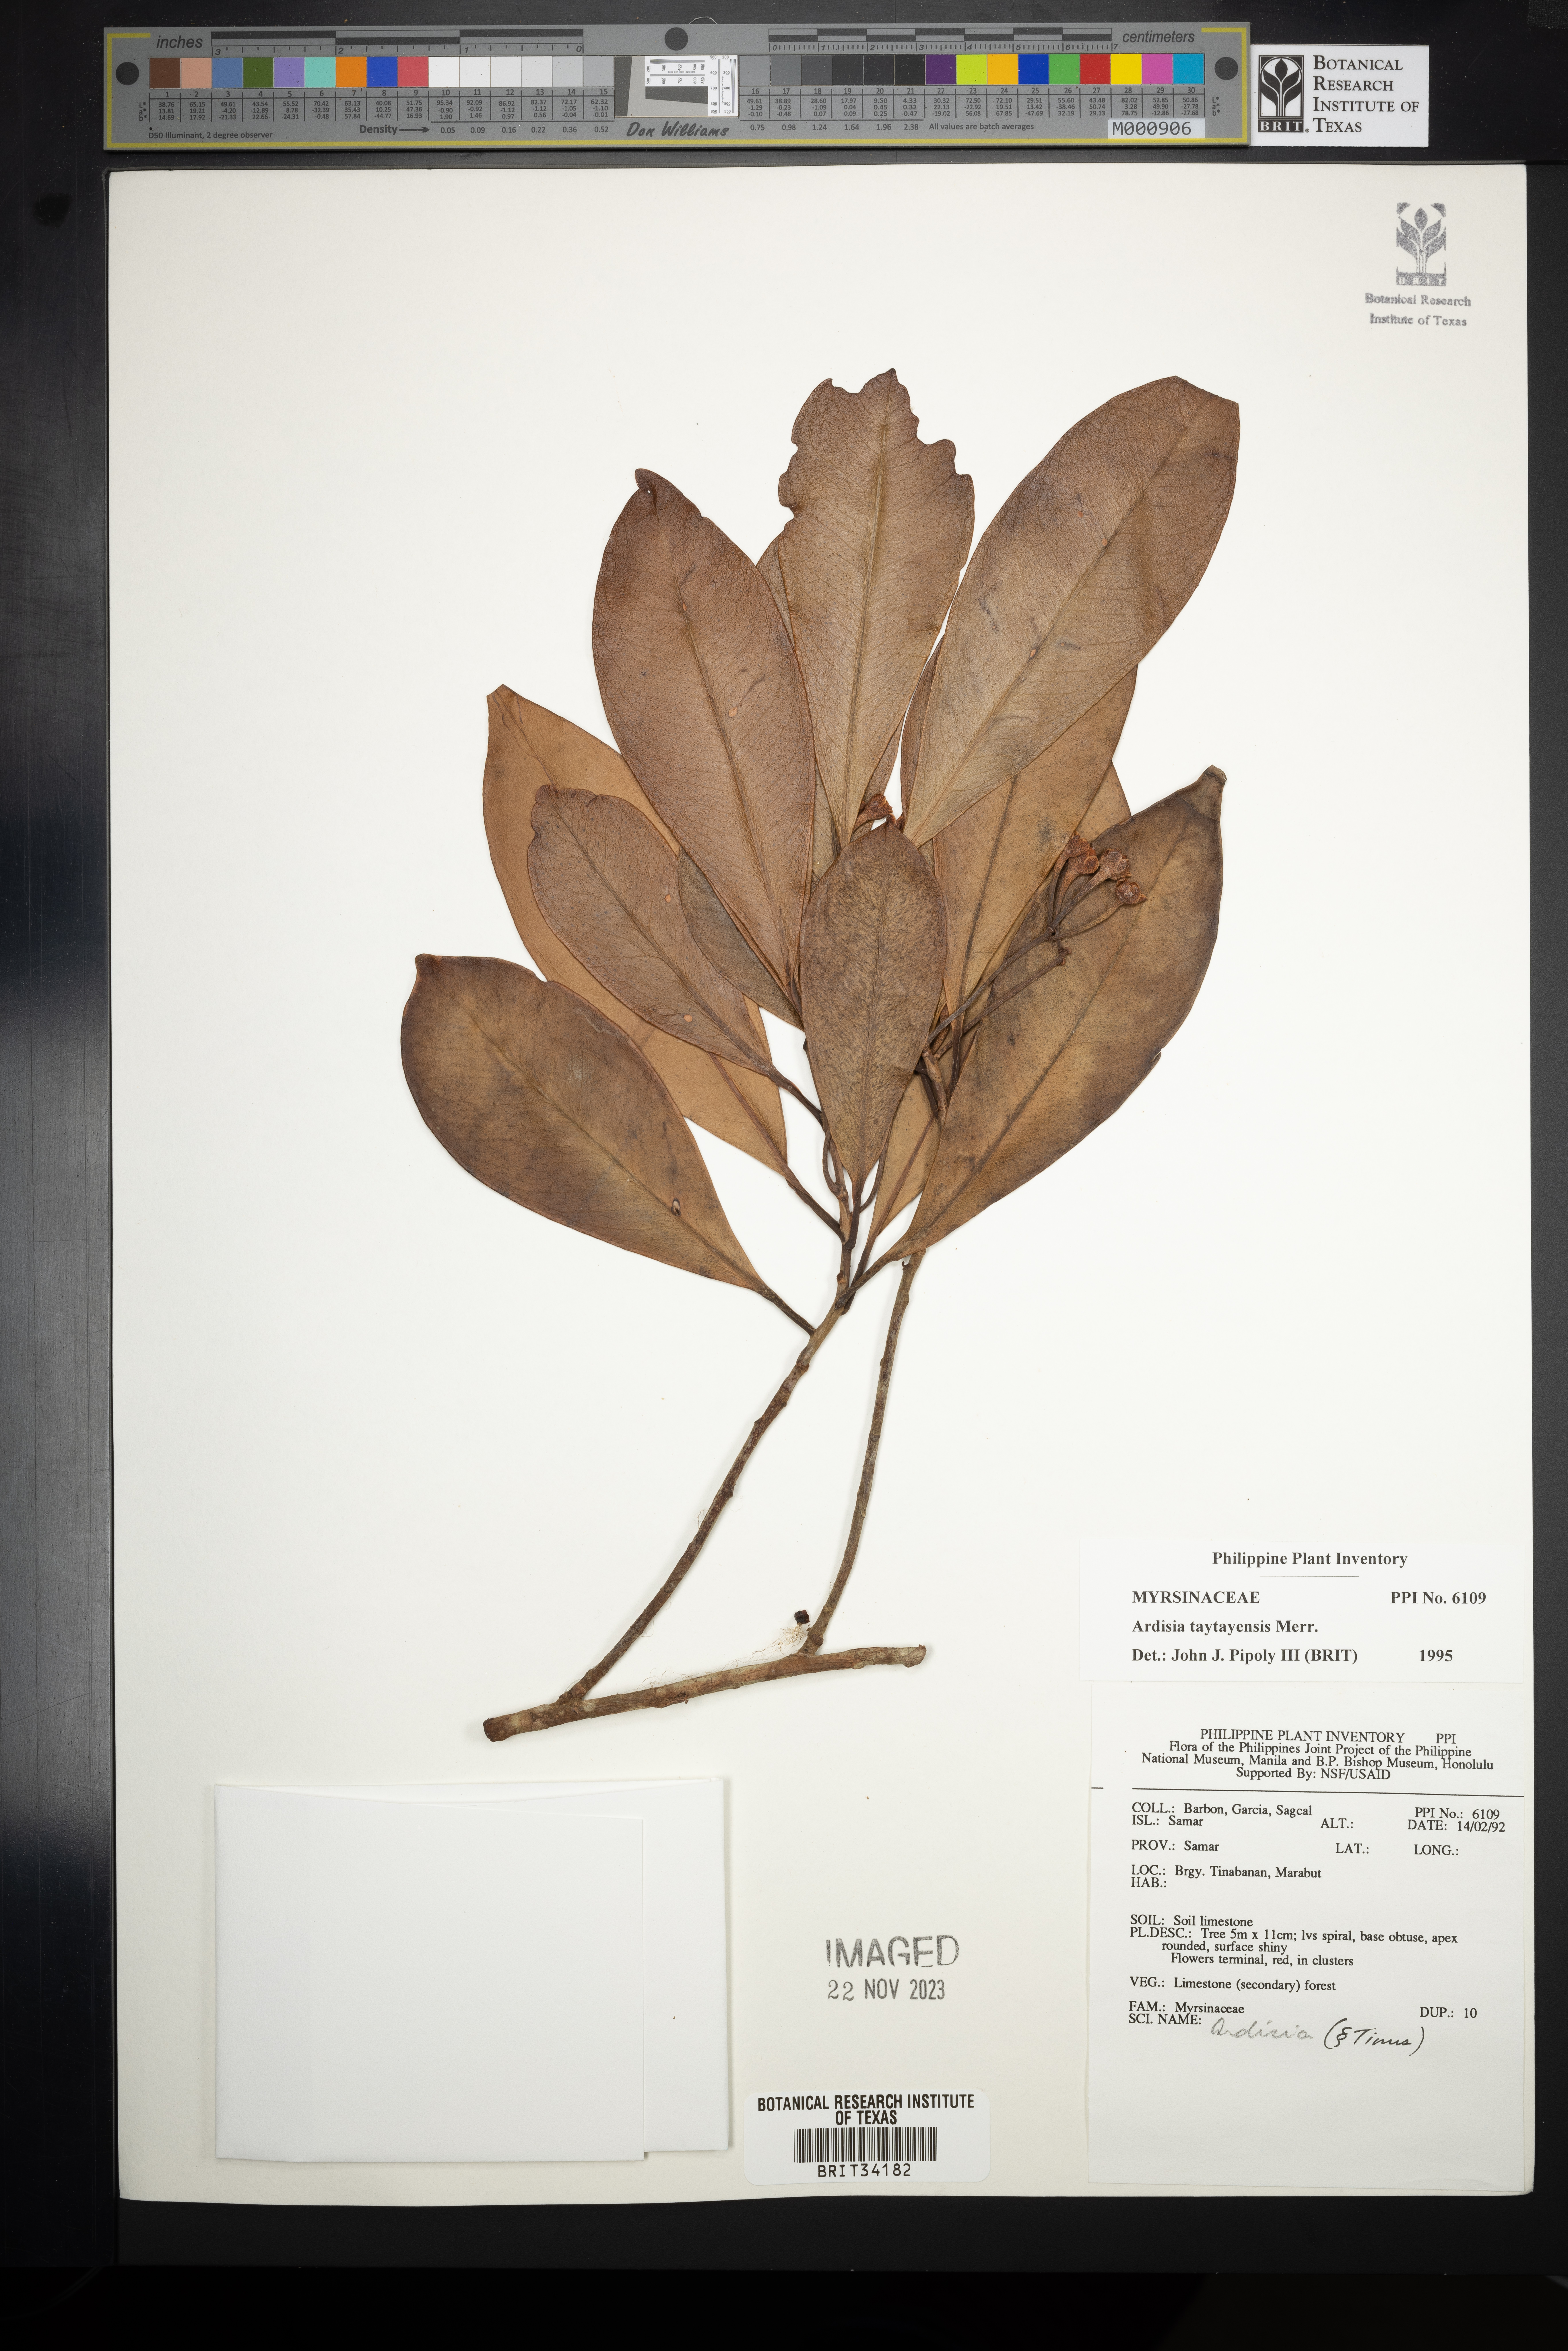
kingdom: Plantae
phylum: Tracheophyta
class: Magnoliopsida
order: Ericales
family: Primulaceae
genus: Ardisia
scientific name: Ardisia taytayensis
